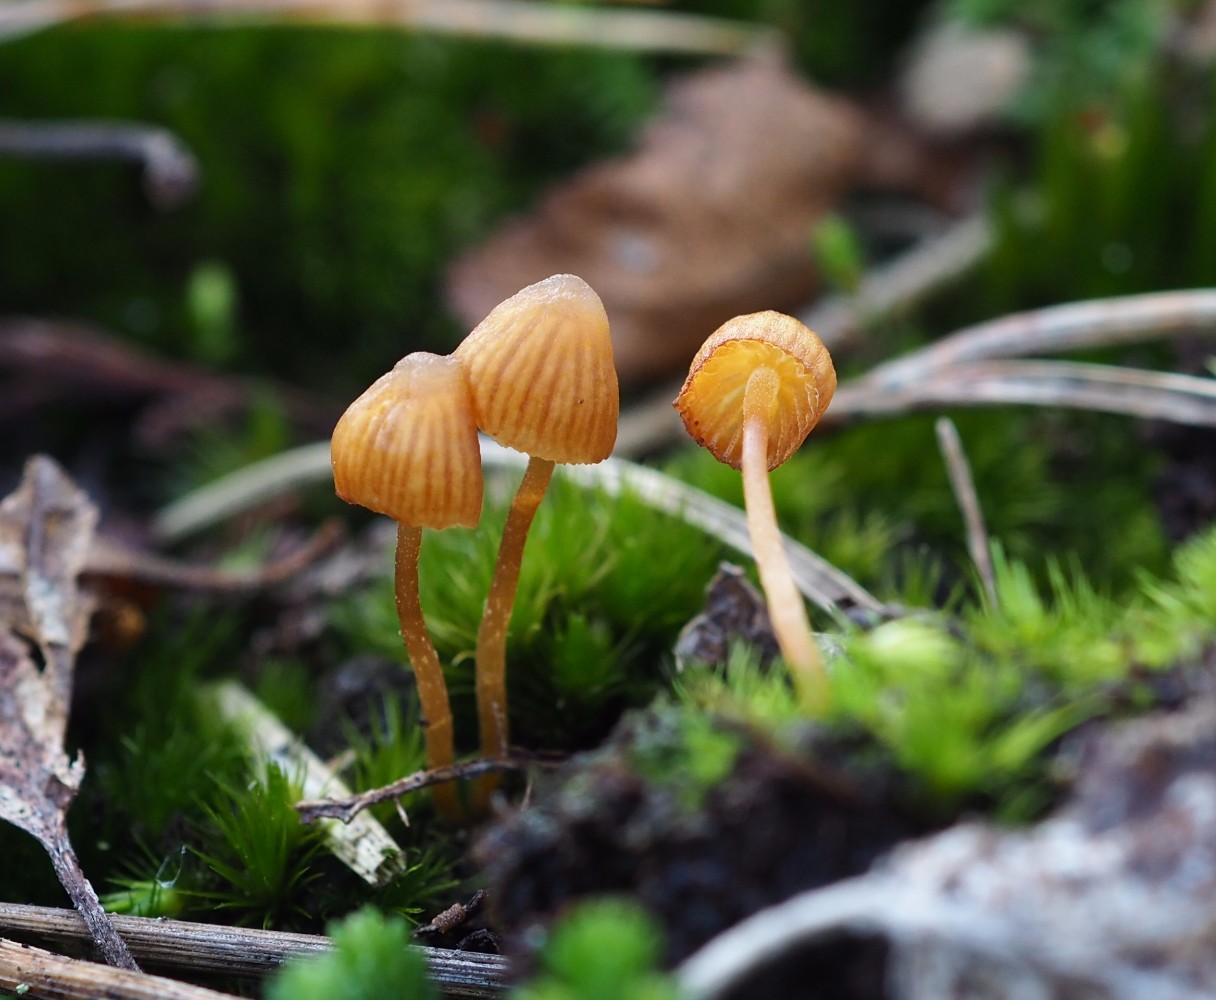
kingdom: Fungi
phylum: Basidiomycota
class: Agaricomycetes
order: Agaricales
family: Hymenogastraceae
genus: Galerina
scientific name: Galerina hypnorum
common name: mos-hjelmhat
